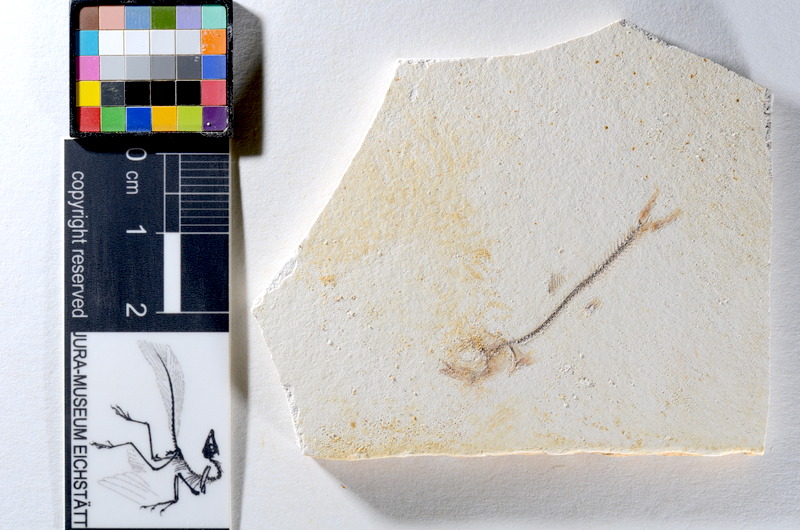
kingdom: Animalia
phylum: Chordata
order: Salmoniformes
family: Orthogonikleithridae
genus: Orthogonikleithrus
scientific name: Orthogonikleithrus hoelli
